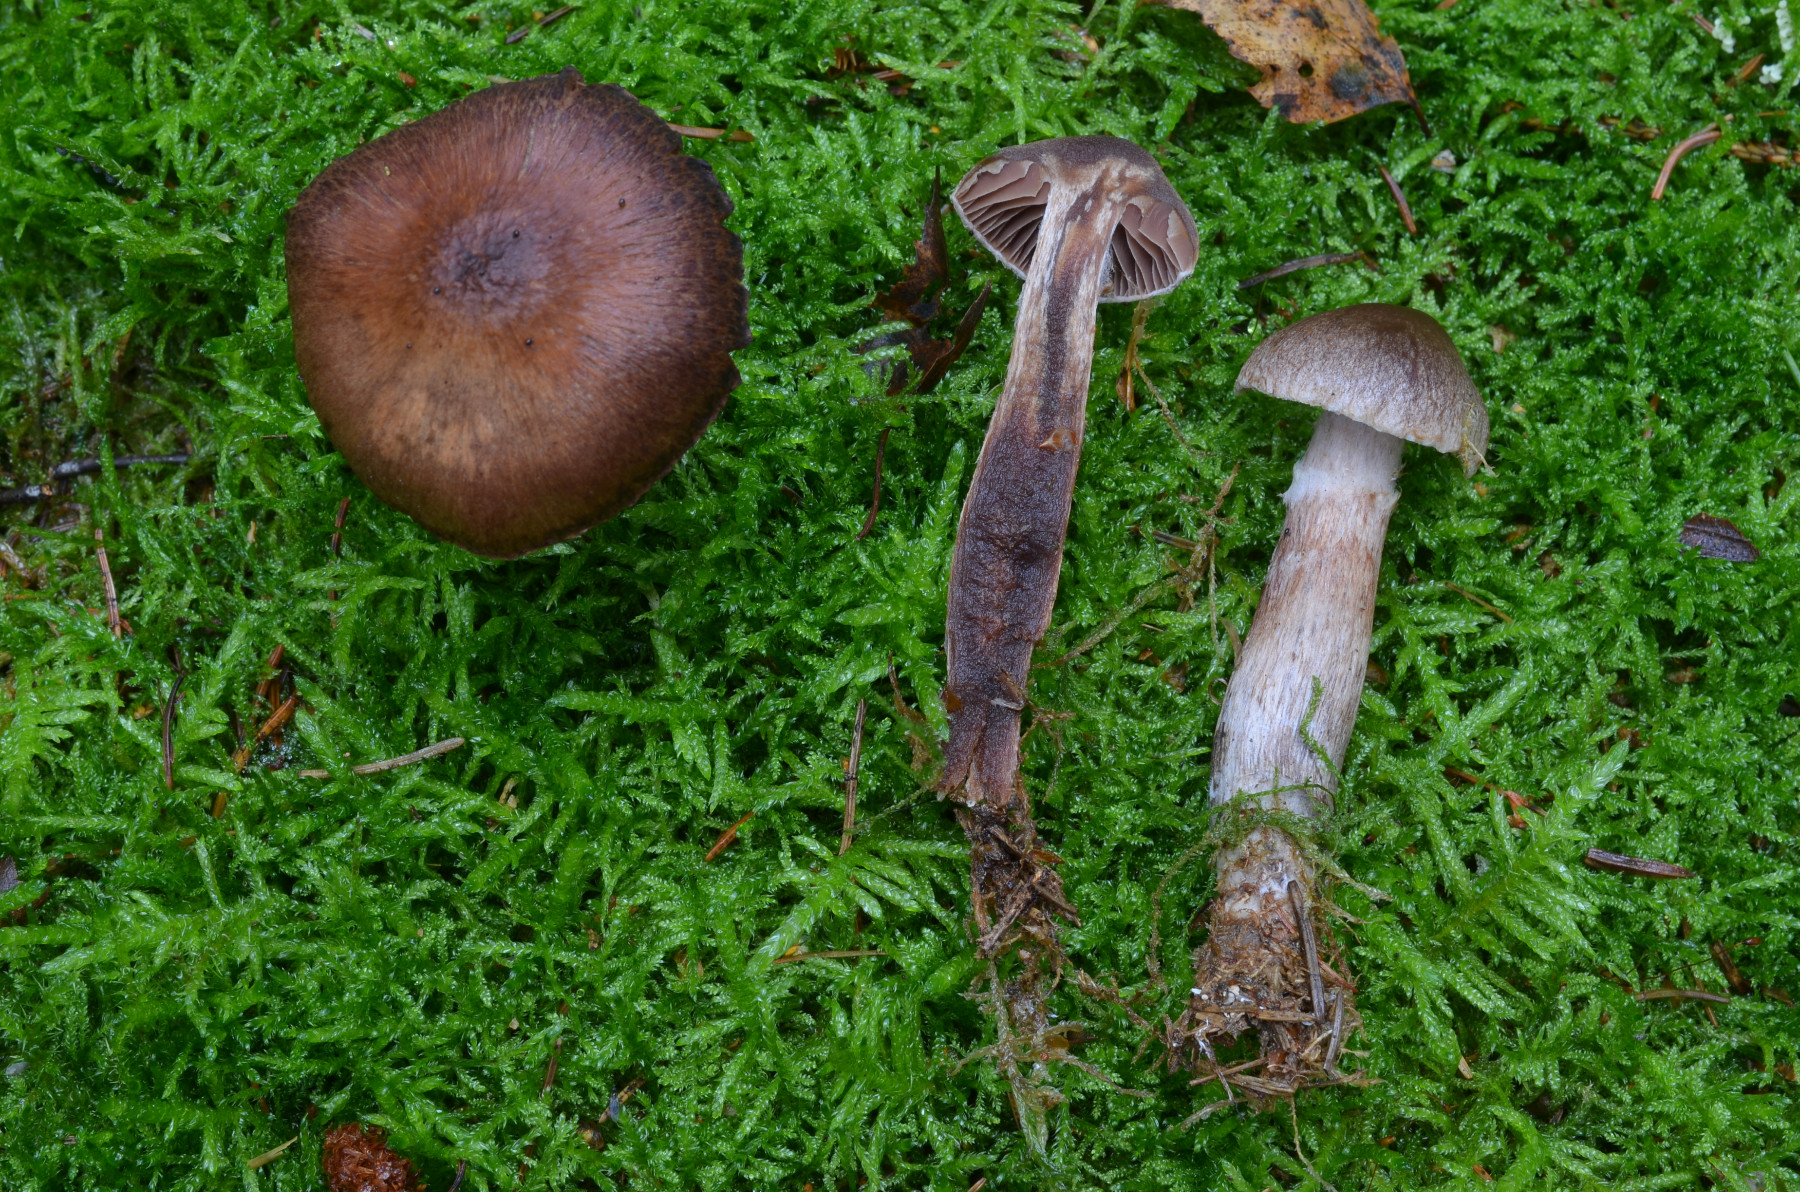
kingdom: Fungi
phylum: Basidiomycota
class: Agaricomycetes
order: Agaricales
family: Cortinariaceae
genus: Cortinarius
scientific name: Cortinarius brunneus
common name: sortbrun slørhat
